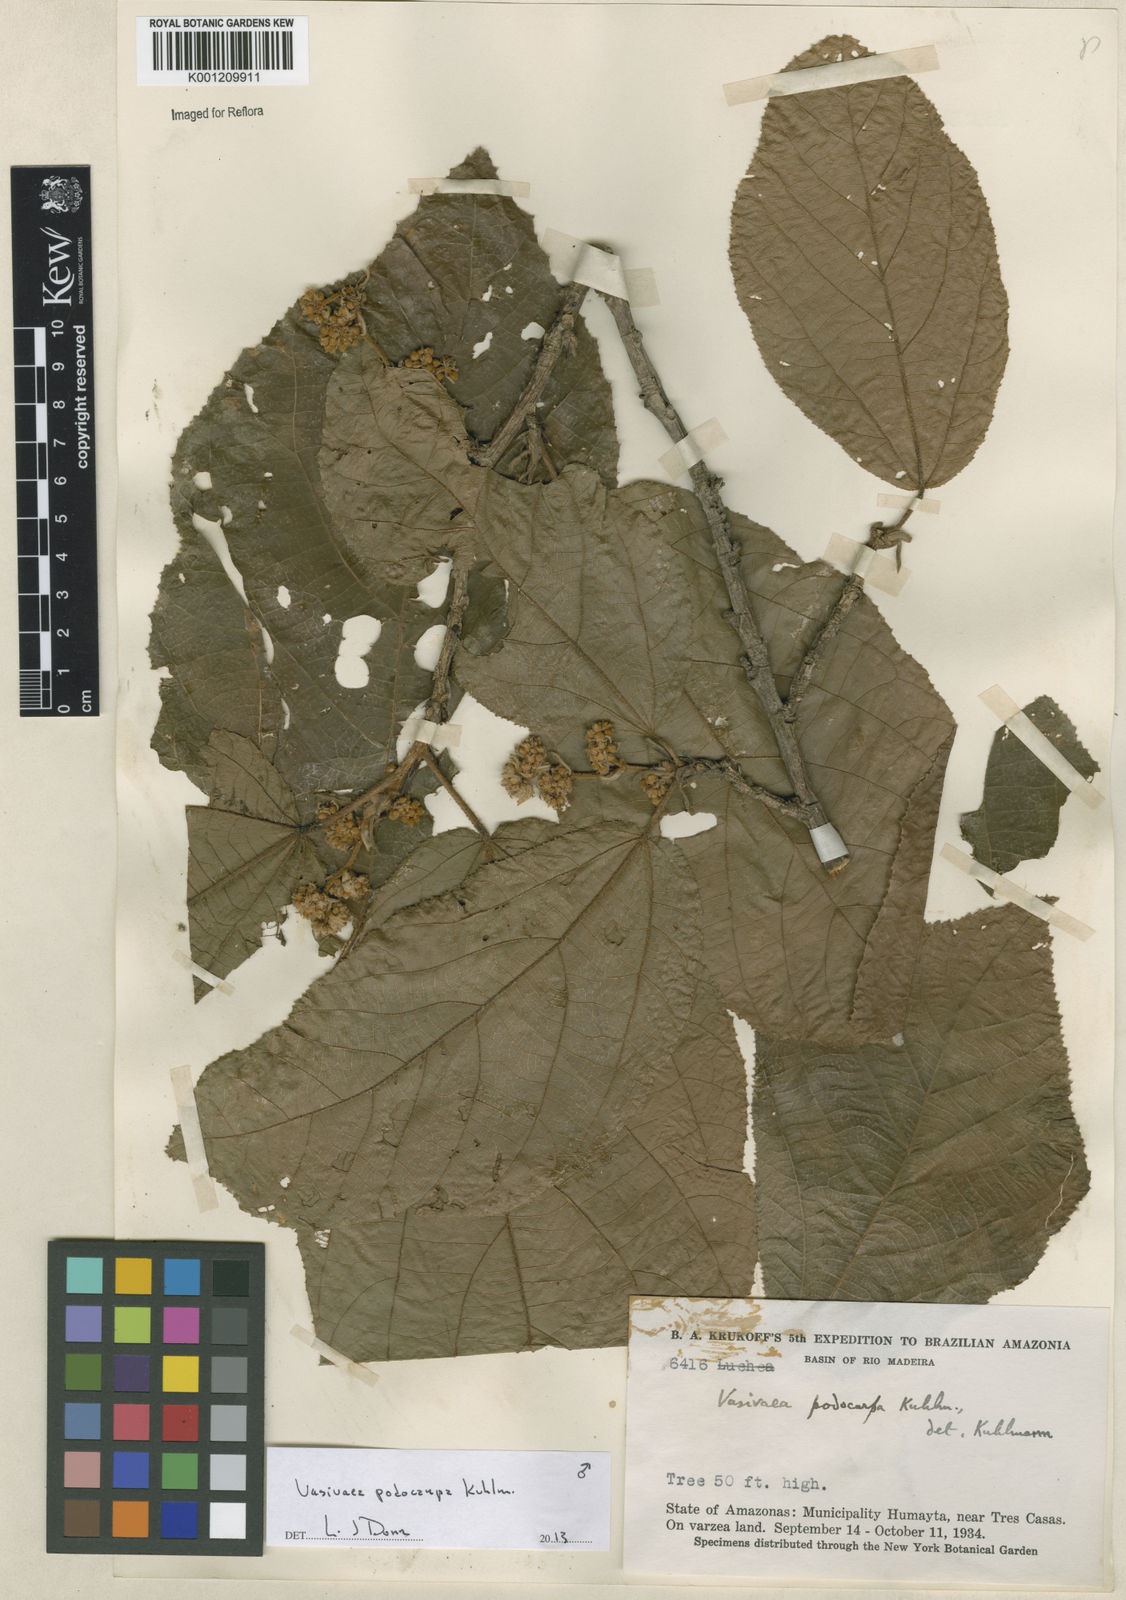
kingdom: Plantae
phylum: Tracheophyta
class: Magnoliopsida
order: Malvales
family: Malvaceae
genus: Vasivaea
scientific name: Vasivaea podocarpa
